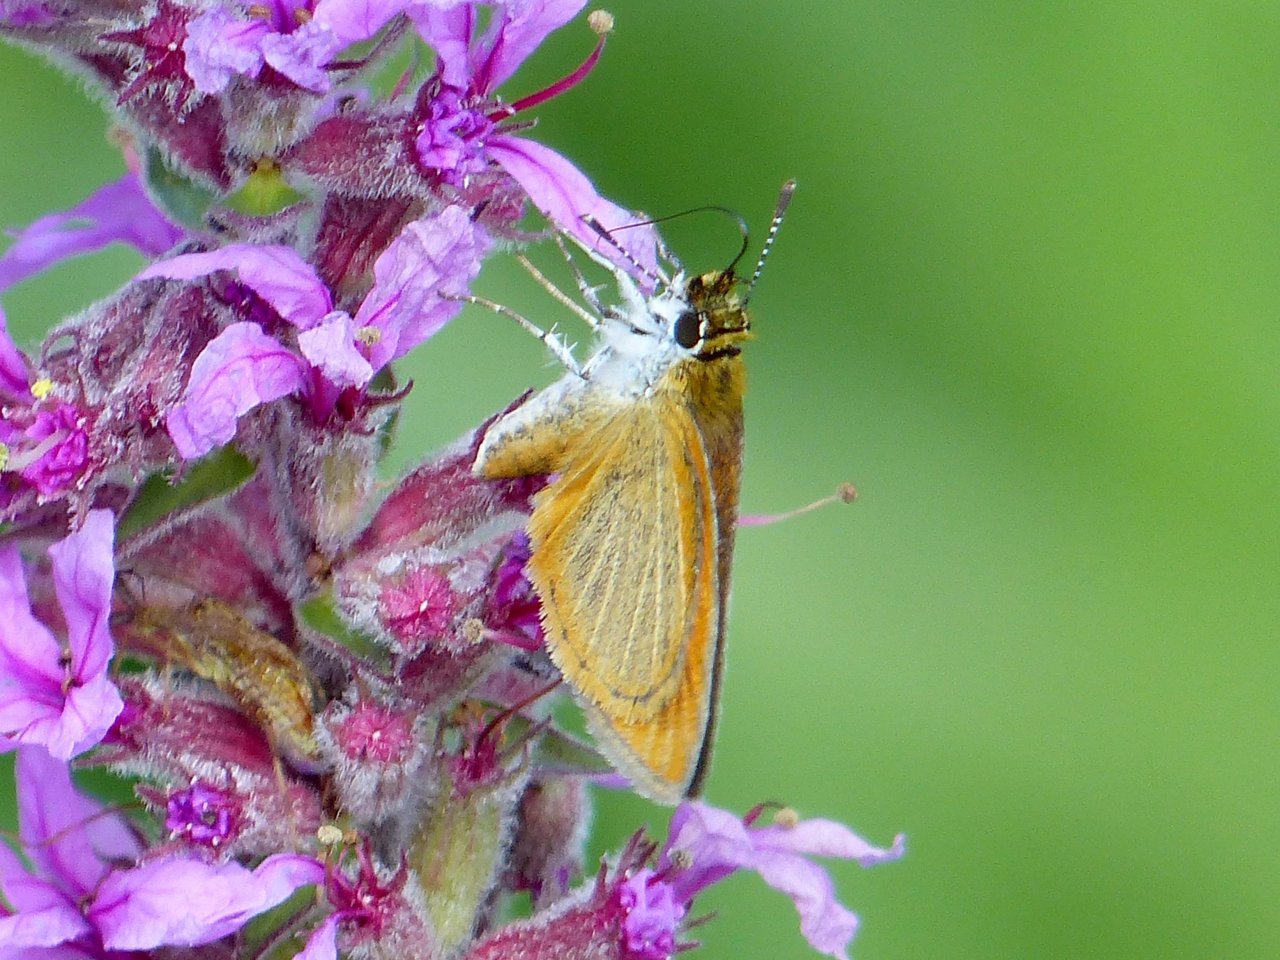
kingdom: Animalia
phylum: Arthropoda
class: Insecta
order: Lepidoptera
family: Hesperiidae
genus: Ancyloxypha
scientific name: Ancyloxypha numitor
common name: Least Skipper
